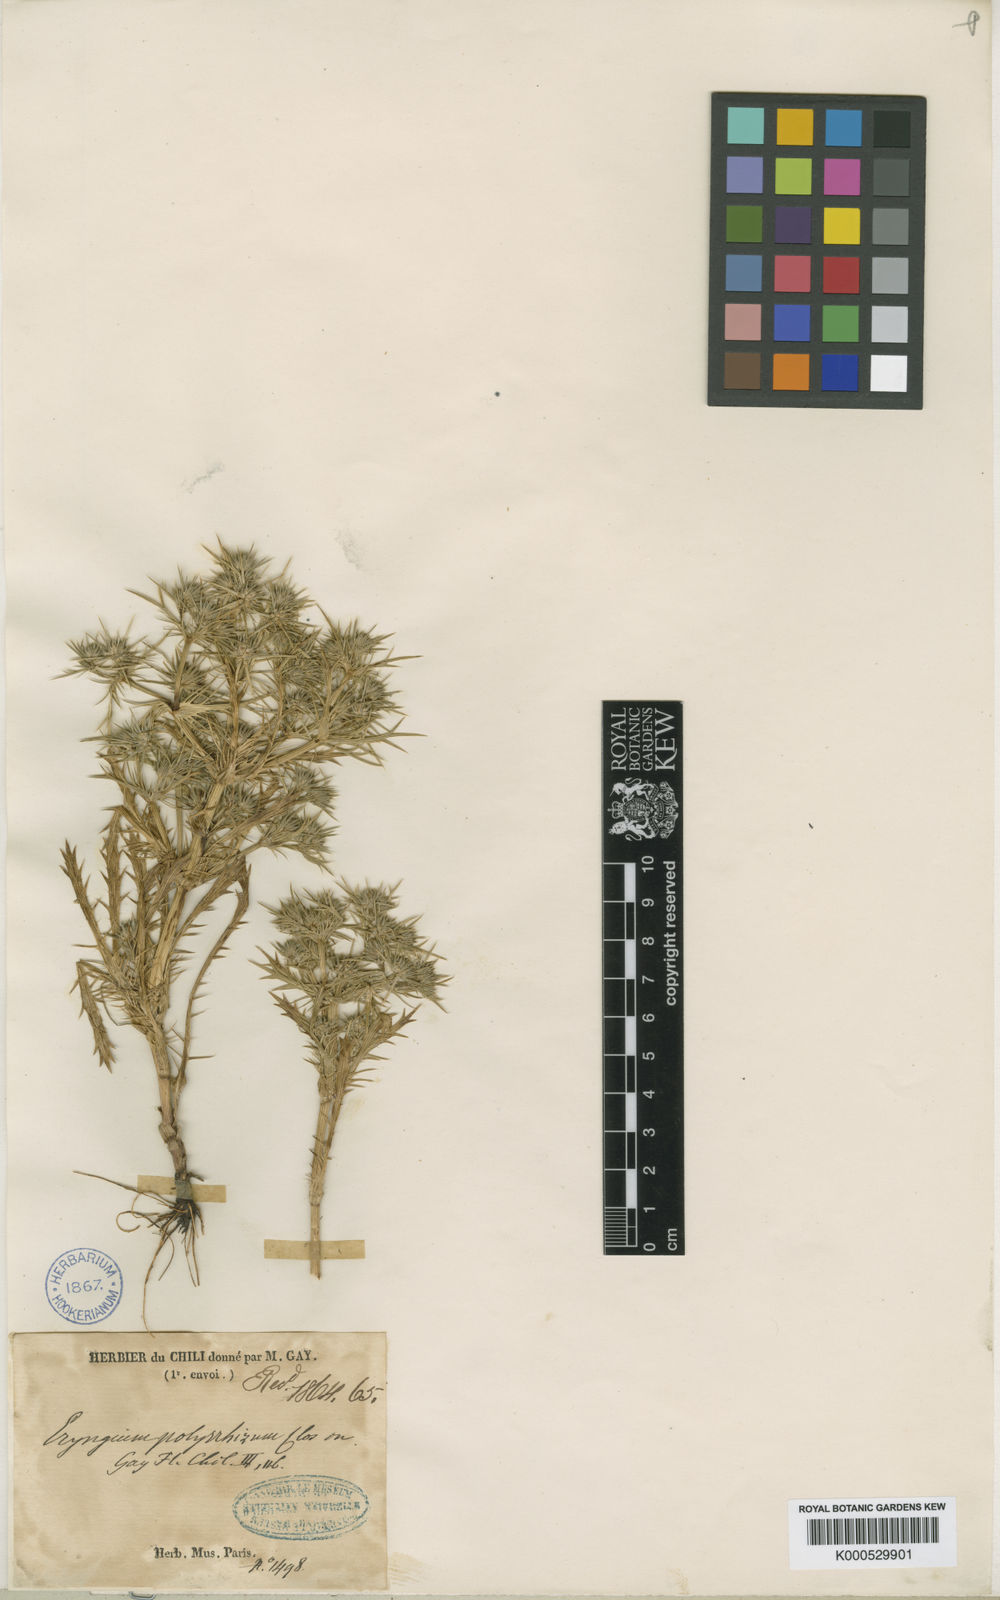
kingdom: Plantae
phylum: Tracheophyta
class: Magnoliopsida
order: Apiales
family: Apiaceae
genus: Eryngium
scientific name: Eryngium polyrhizum
